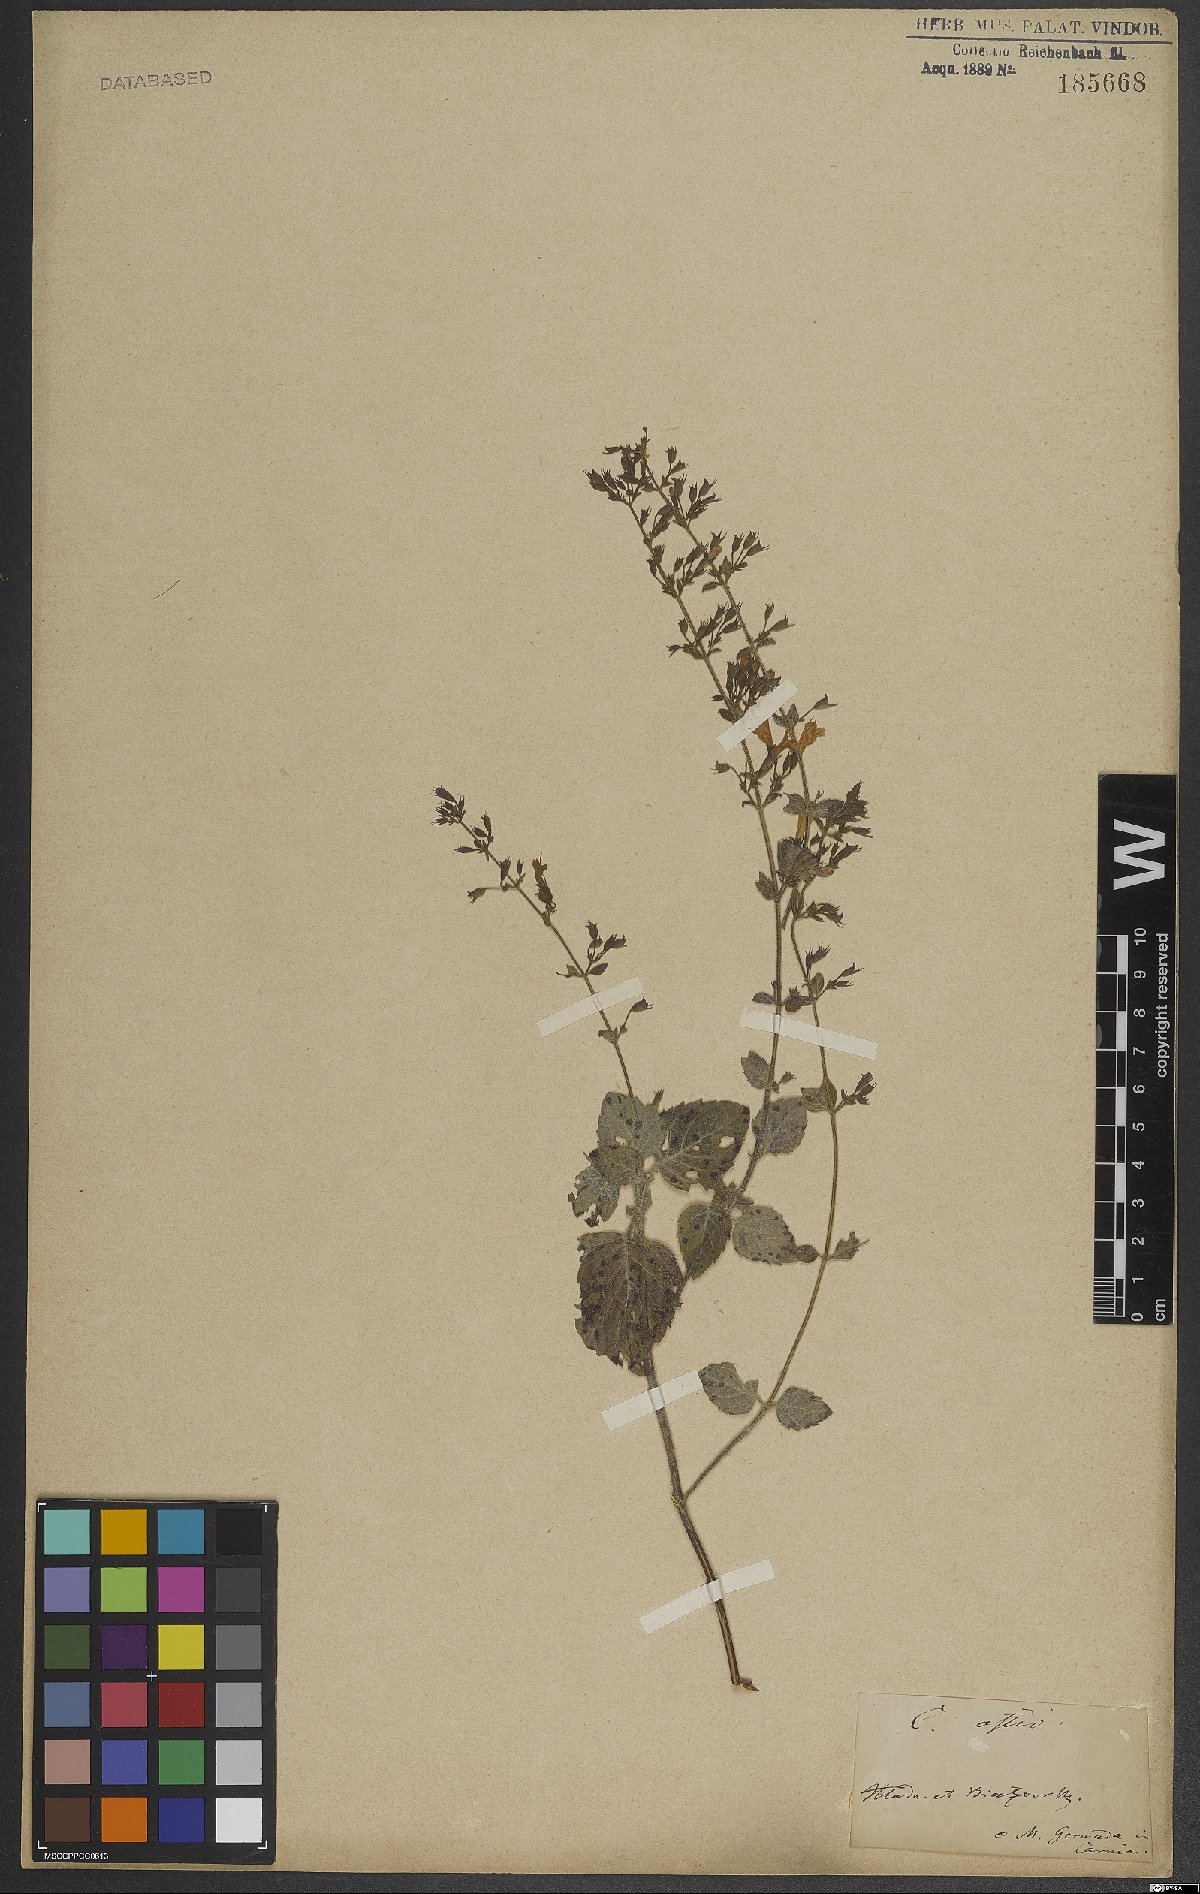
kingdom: Plantae
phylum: Tracheophyta
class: Magnoliopsida
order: Lamiales
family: Lamiaceae
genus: Clinopodium
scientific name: Clinopodium nepeta
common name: Lesser calamint
